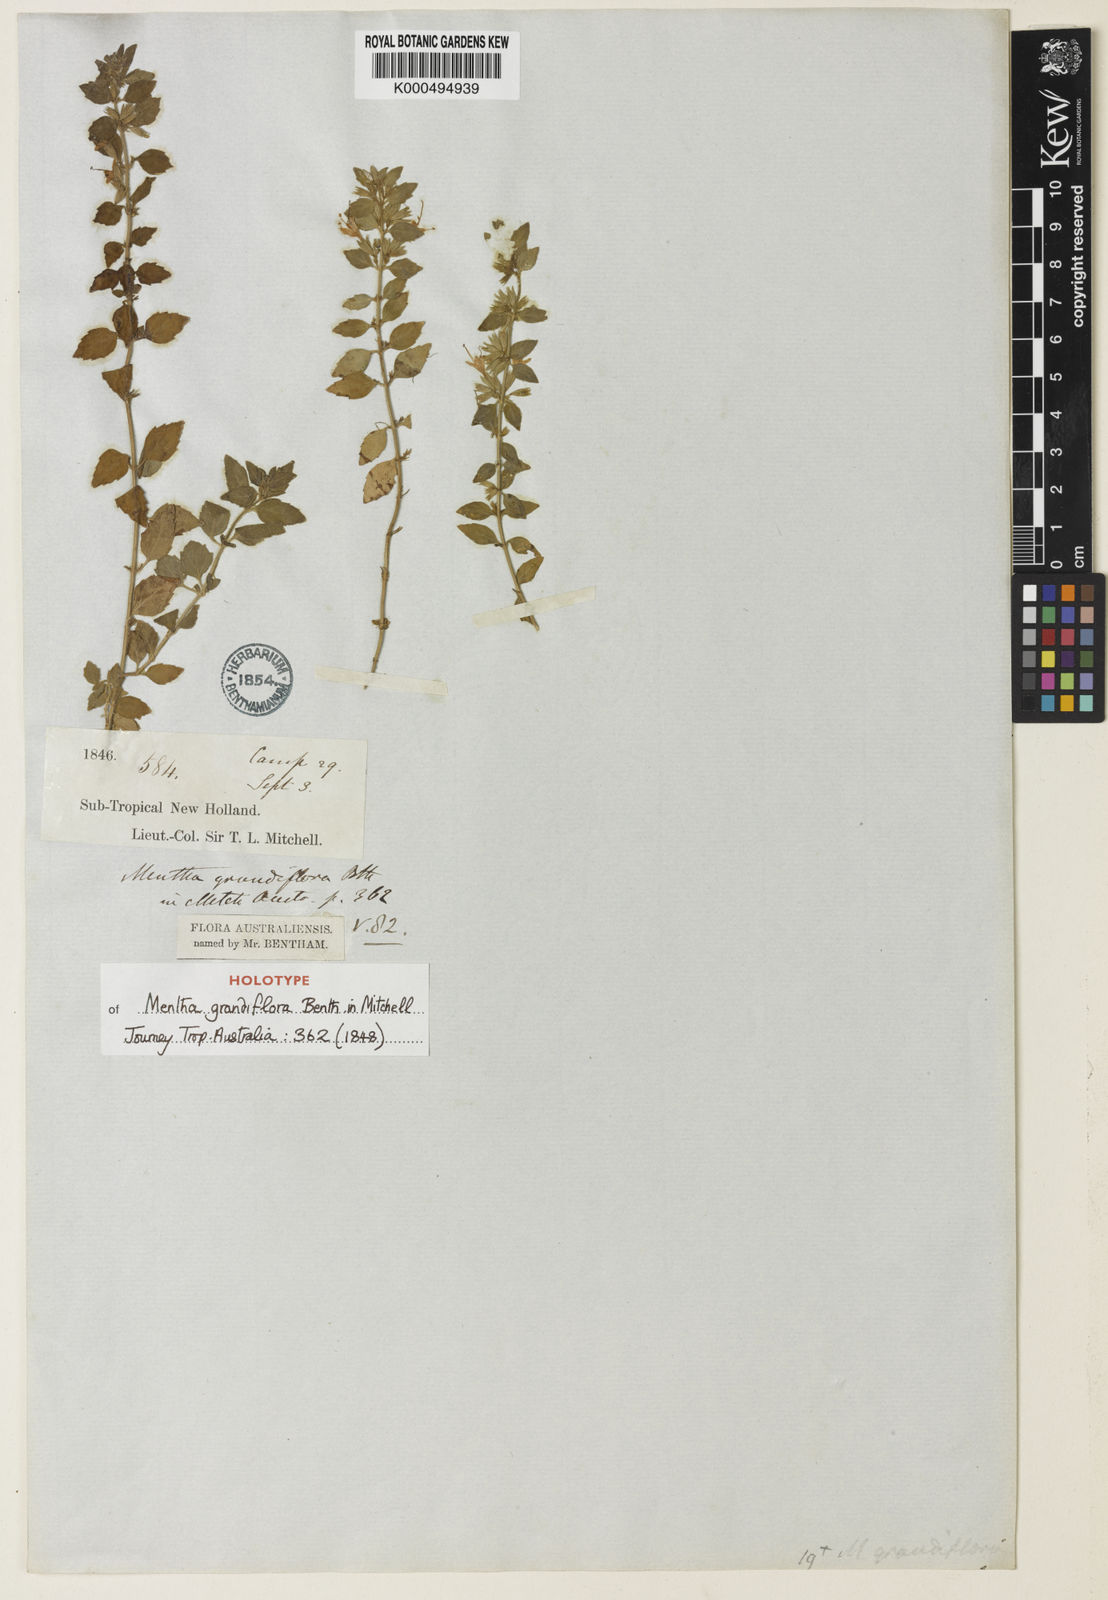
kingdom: Plantae
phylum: Tracheophyta
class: Magnoliopsida
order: Lamiales
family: Lamiaceae
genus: Mentha
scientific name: Mentha grandiflora
